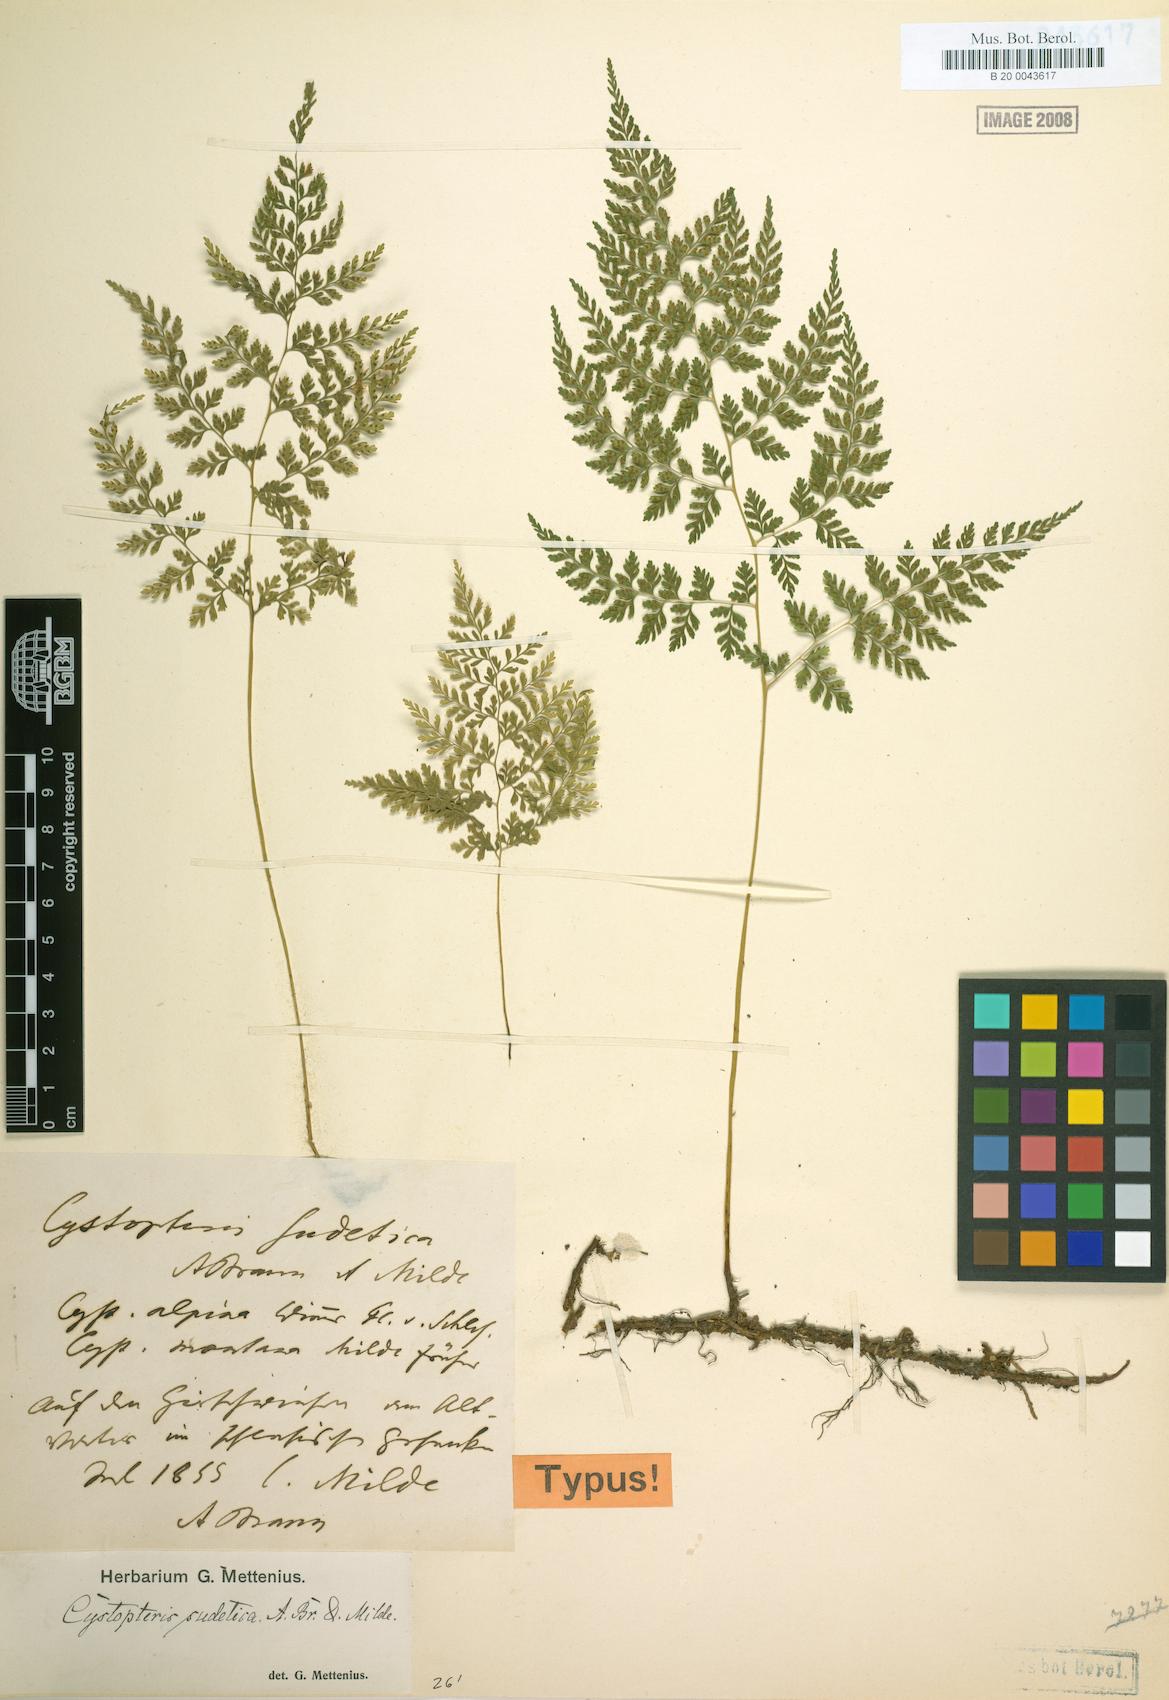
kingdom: Plantae
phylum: Tracheophyta
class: Polypodiopsida
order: Polypodiales
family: Cystopteridaceae
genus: Cystopteris
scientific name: Cystopteris sudetica
